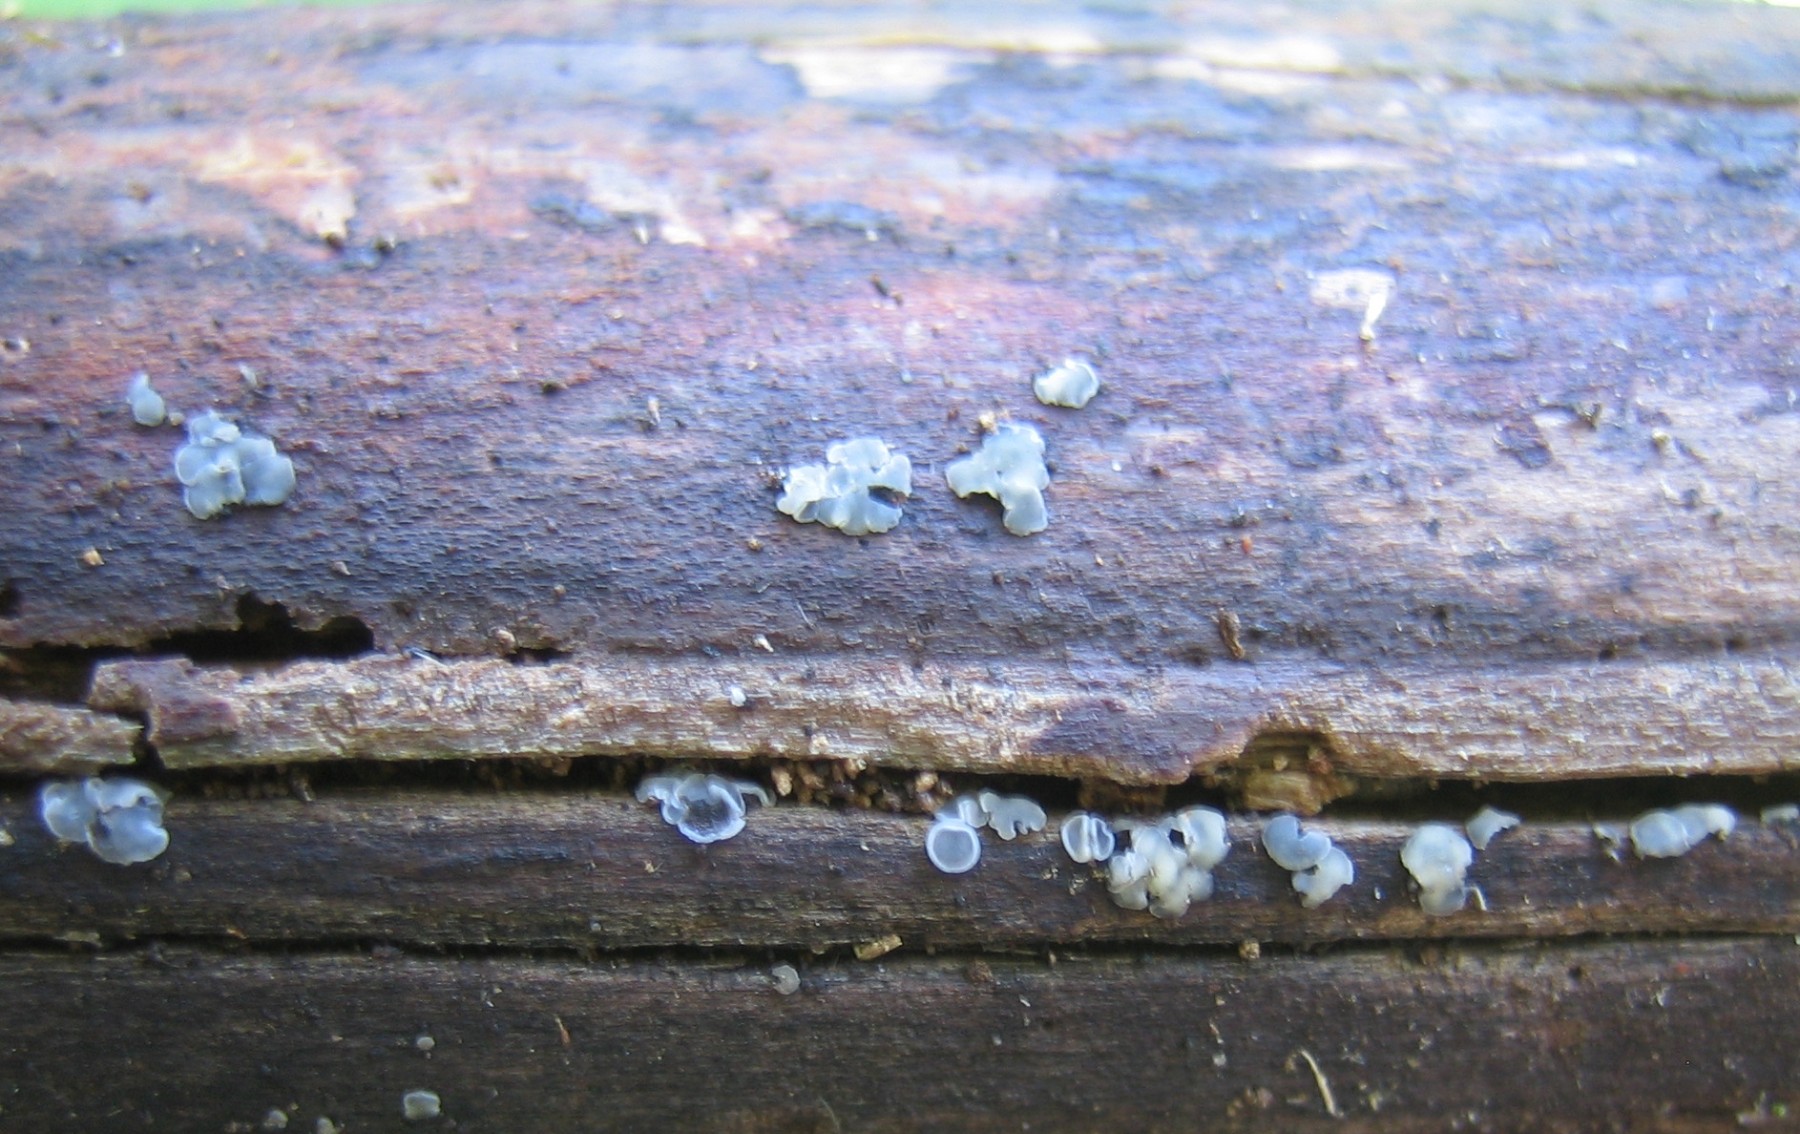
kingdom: Fungi
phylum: Ascomycota
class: Leotiomycetes
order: Helotiales
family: Mollisiaceae
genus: Mollisia
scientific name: Mollisia cinerea
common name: almindelig gråskive
